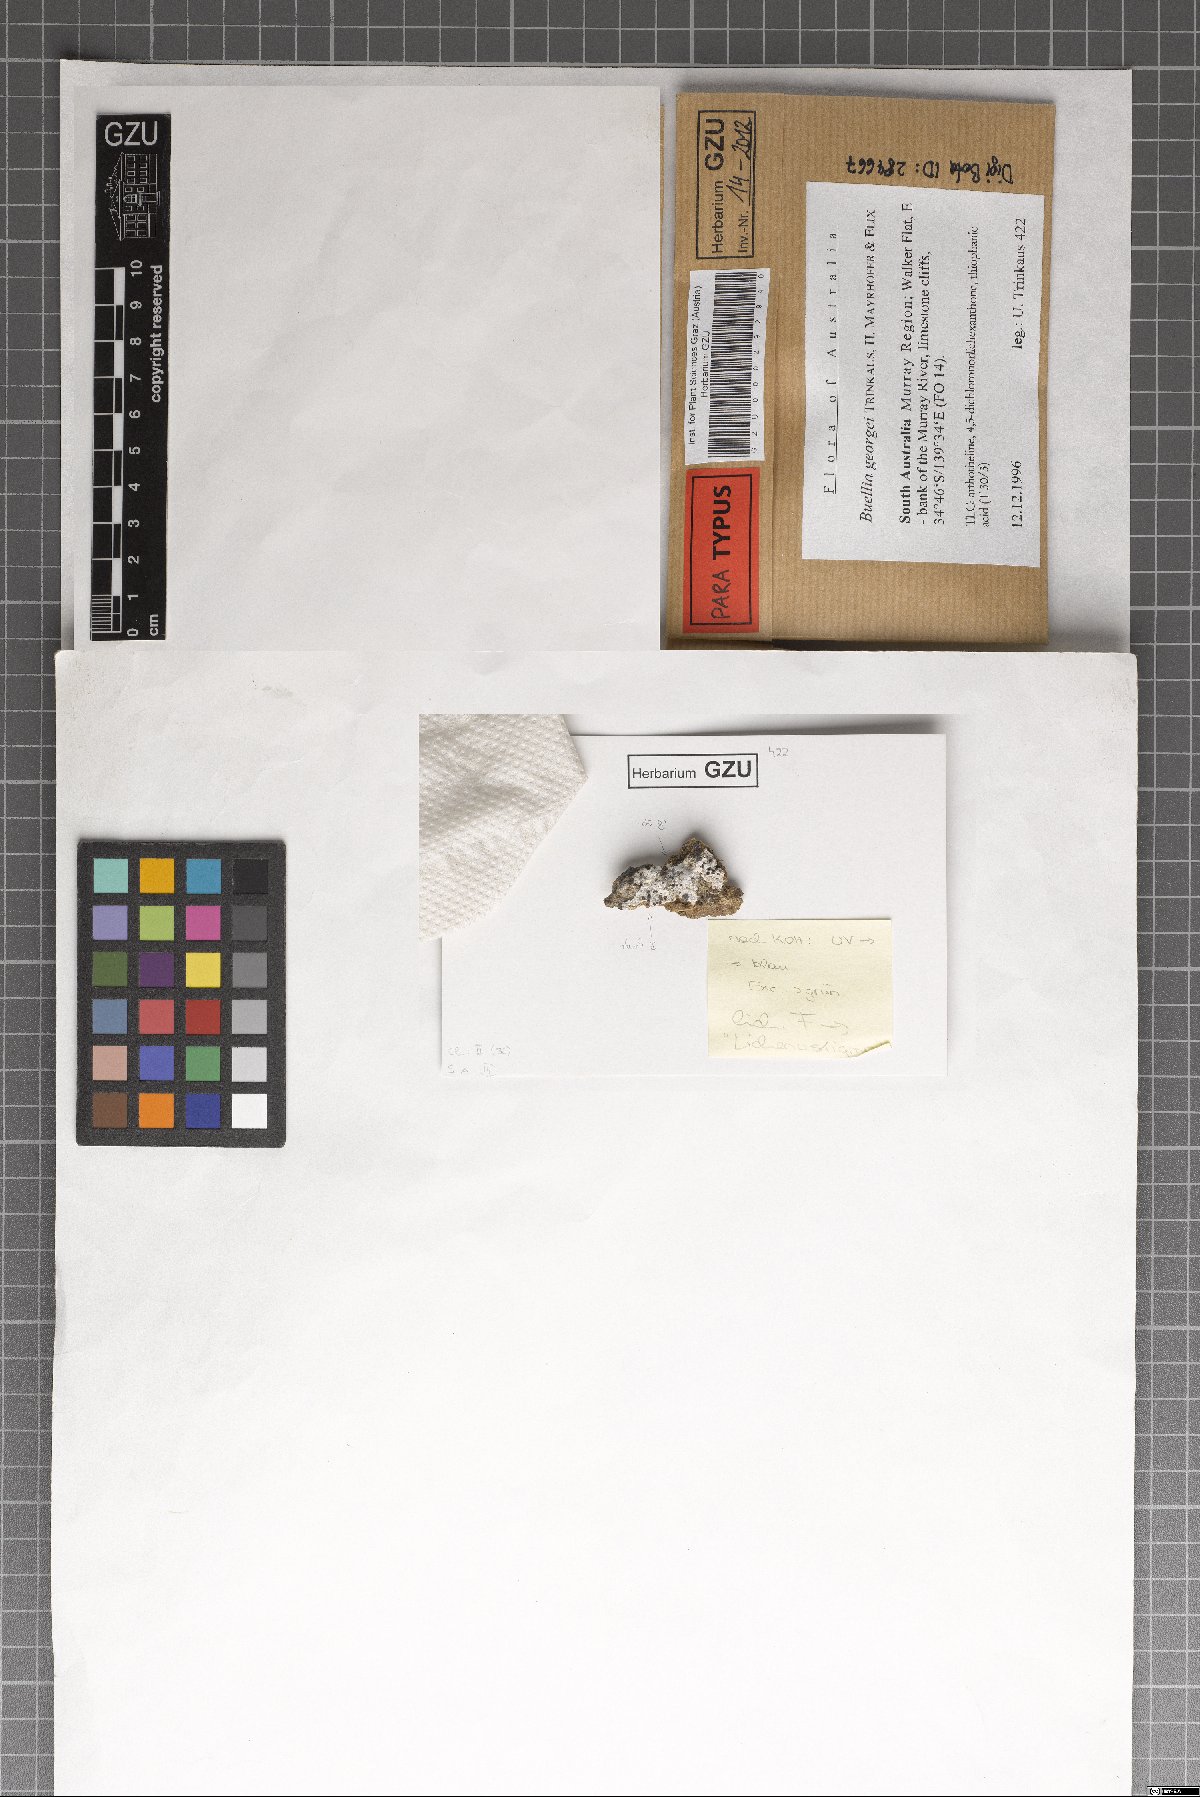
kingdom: Fungi
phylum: Ascomycota
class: Lecanoromycetes
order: Caliciales
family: Caliciaceae
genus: Buellia
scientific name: Buellia georgei
